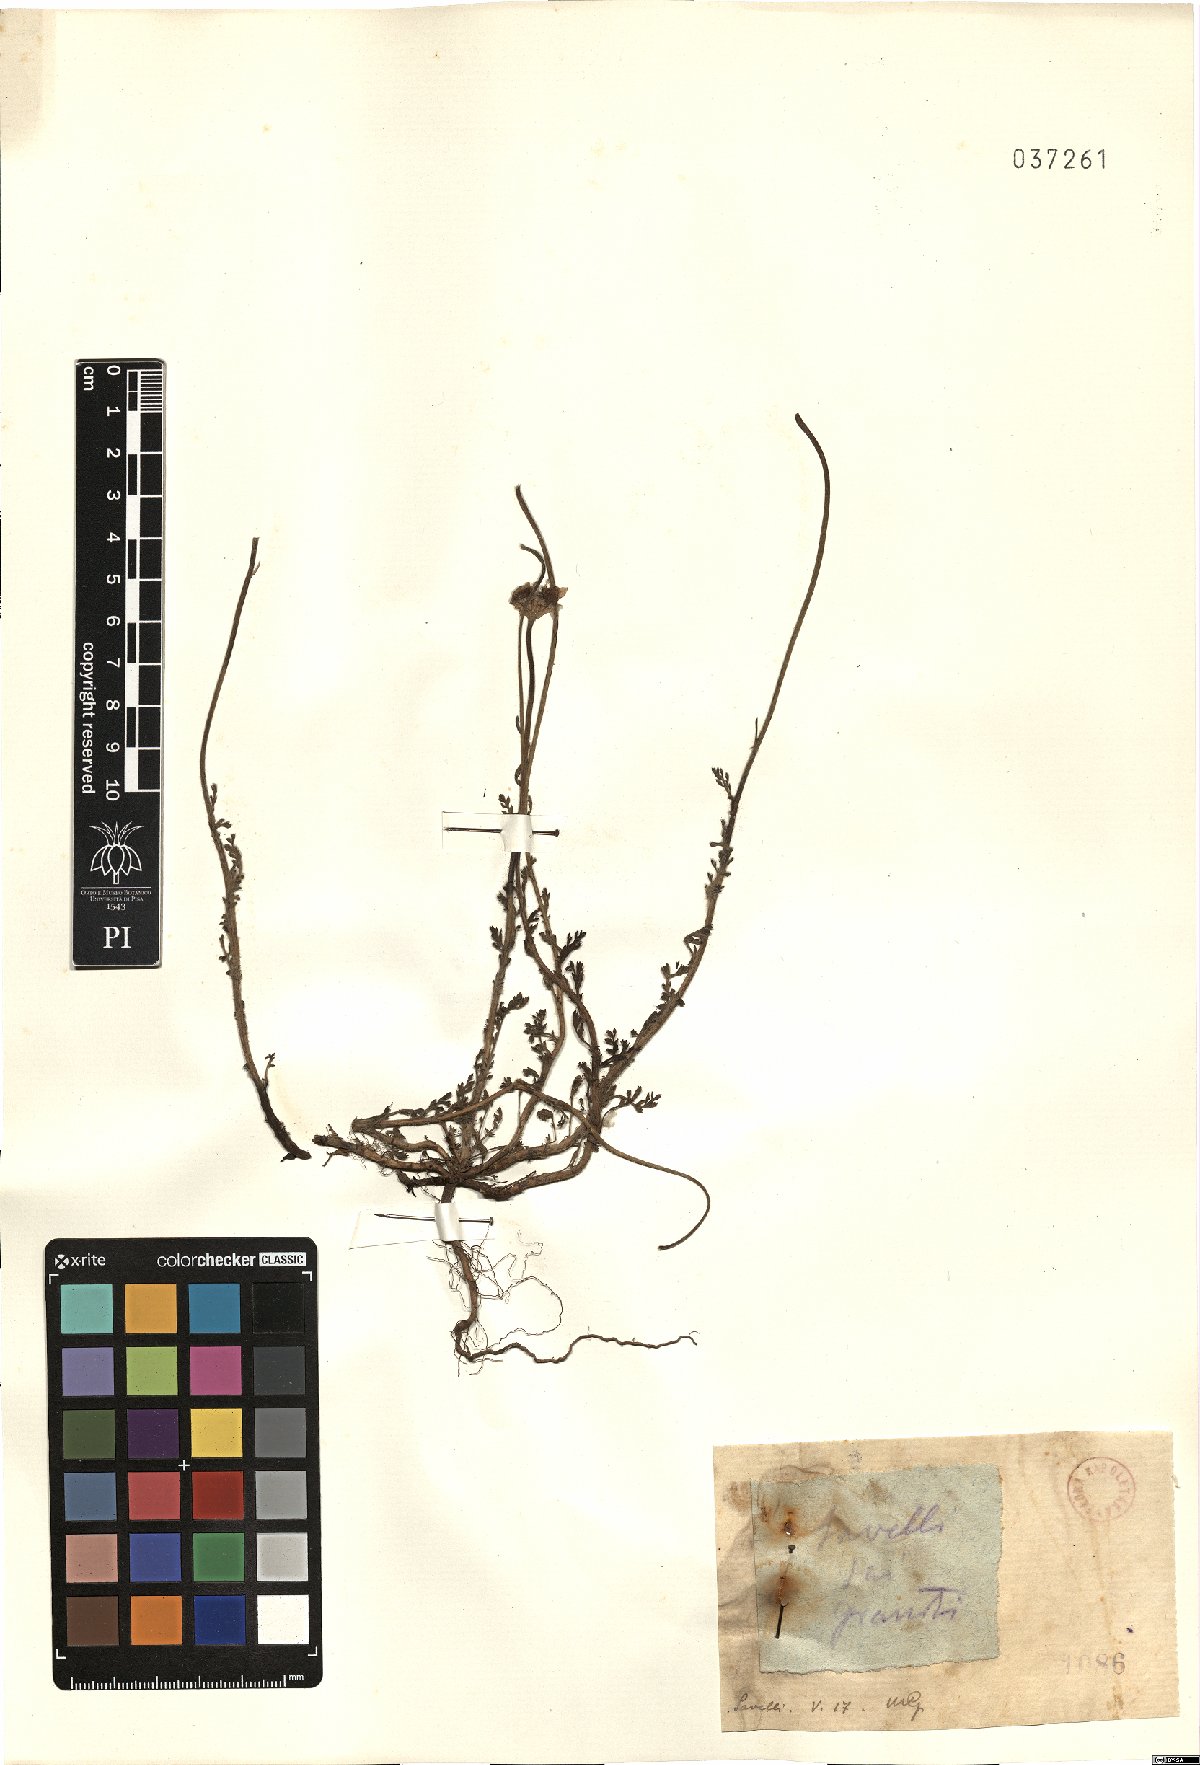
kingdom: Plantae
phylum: Tracheophyta
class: Magnoliopsida
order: Asterales
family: Asteraceae
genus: Anthemis
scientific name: Anthemis
